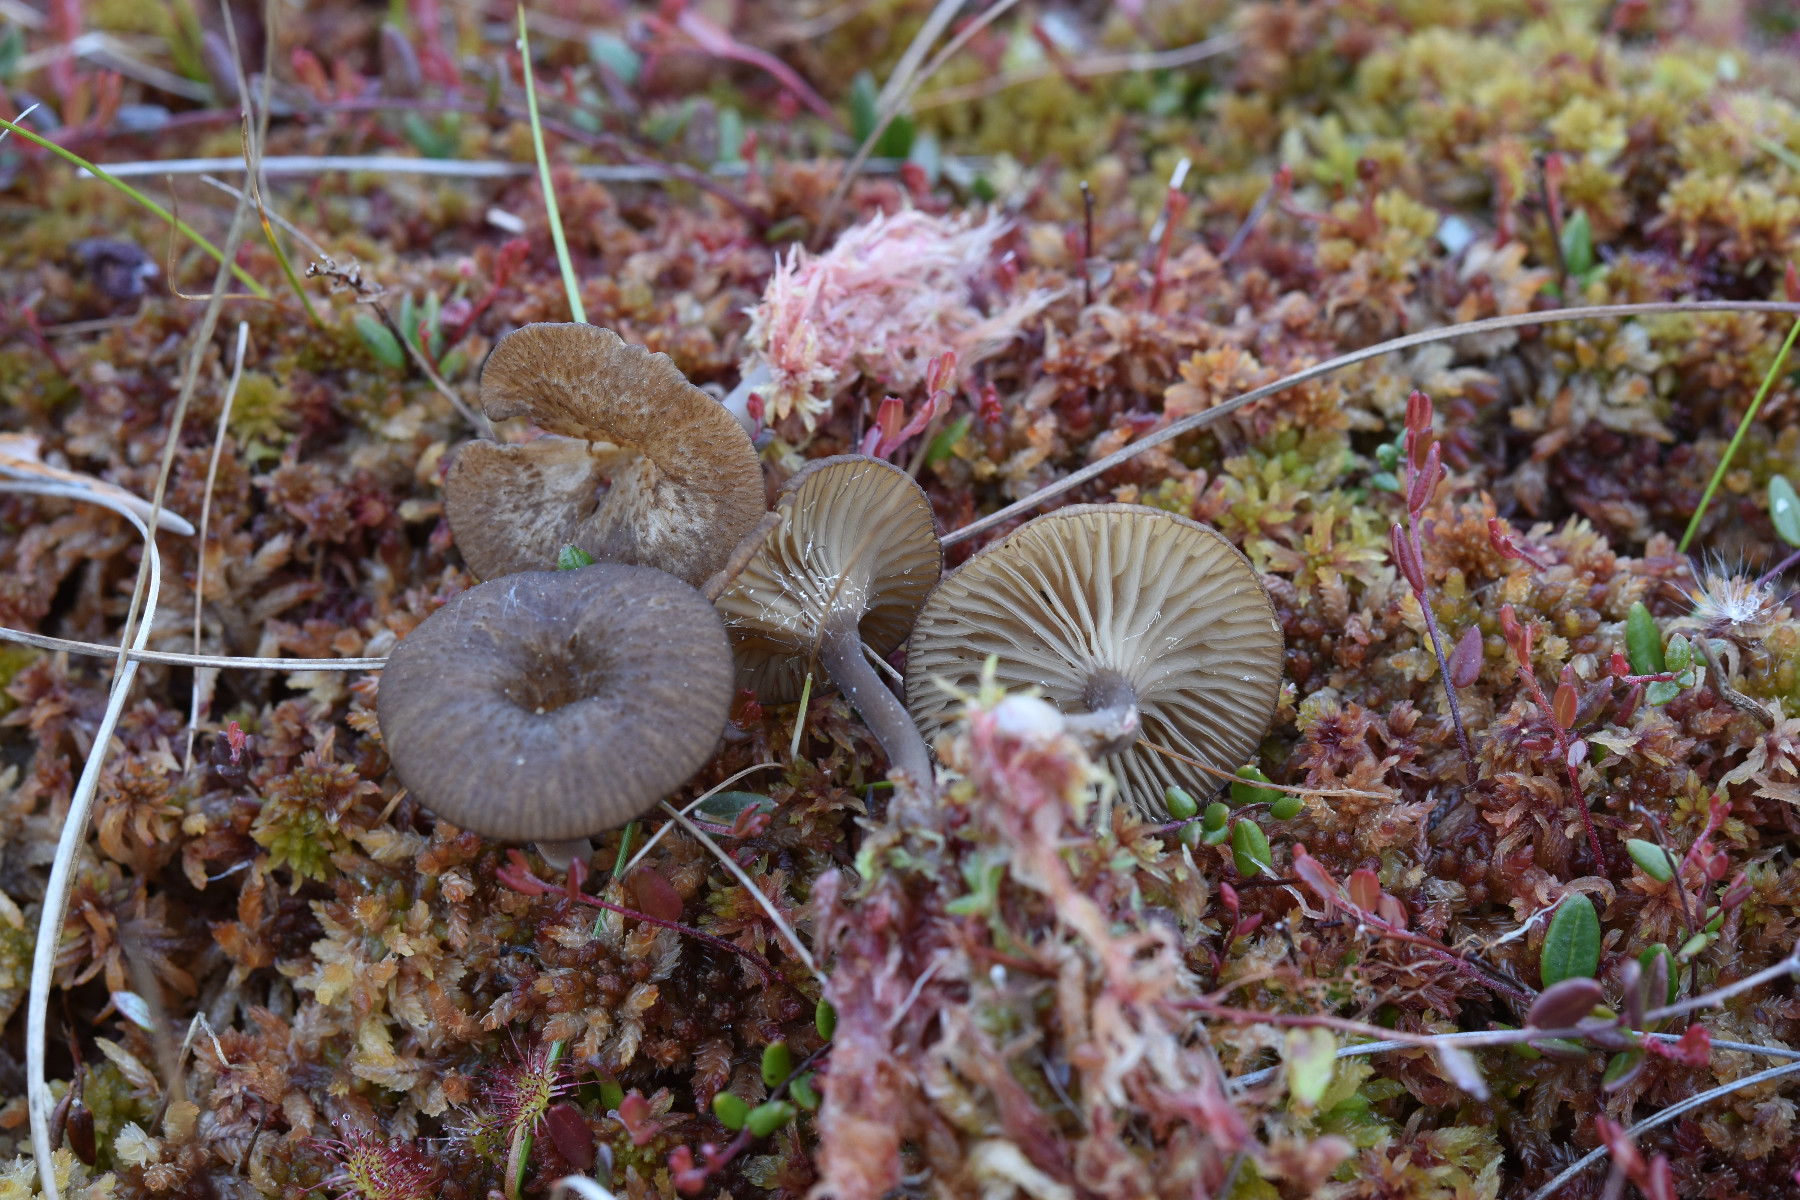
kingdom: Fungi
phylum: Basidiomycota
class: Agaricomycetes
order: Agaricales
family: Hygrophoraceae
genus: Arrhenia
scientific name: Arrhenia gerardiana
